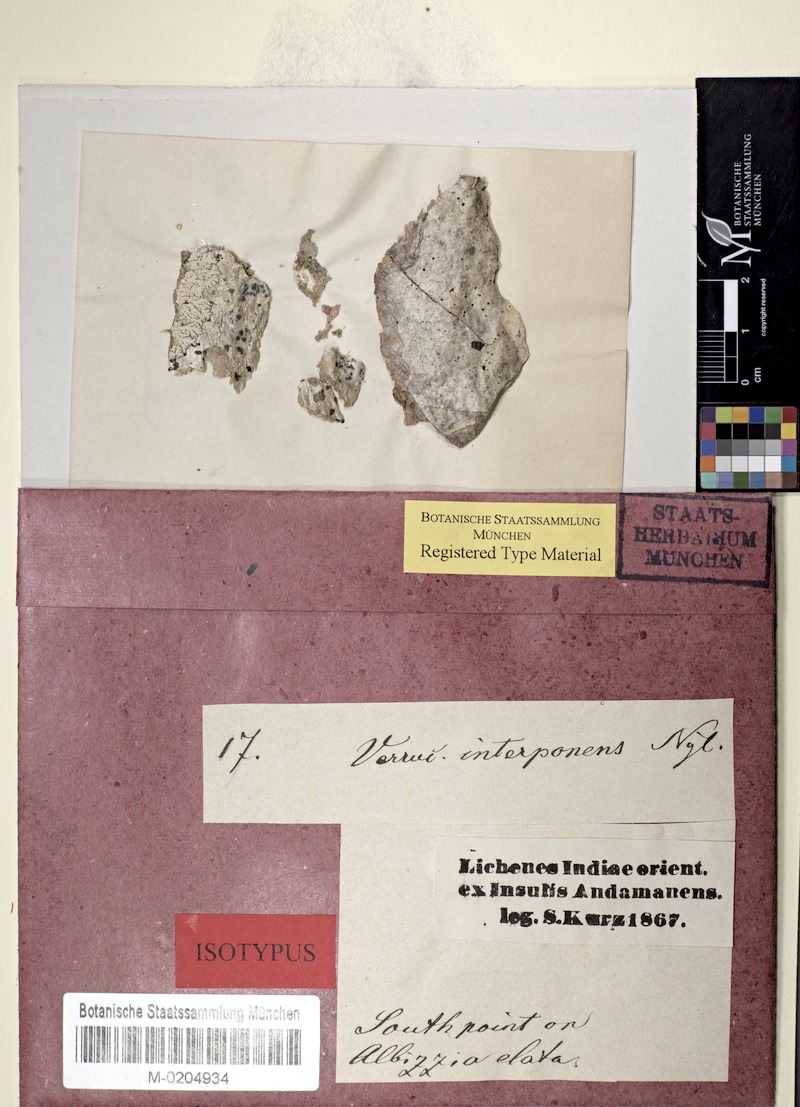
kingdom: Fungi
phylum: Ascomycota
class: Eurotiomycetes
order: Pyrenulales
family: Pyrenulaceae
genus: Anthracothecium
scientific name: Anthracothecium
